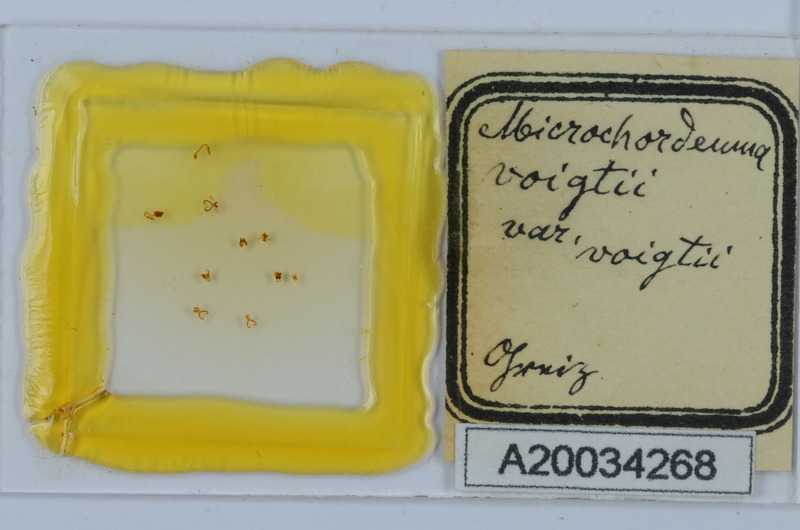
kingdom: Animalia
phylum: Arthropoda
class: Diplopoda
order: Chordeumatida
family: Chordeumatidae
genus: Melogona
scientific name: Melogona voigtii
